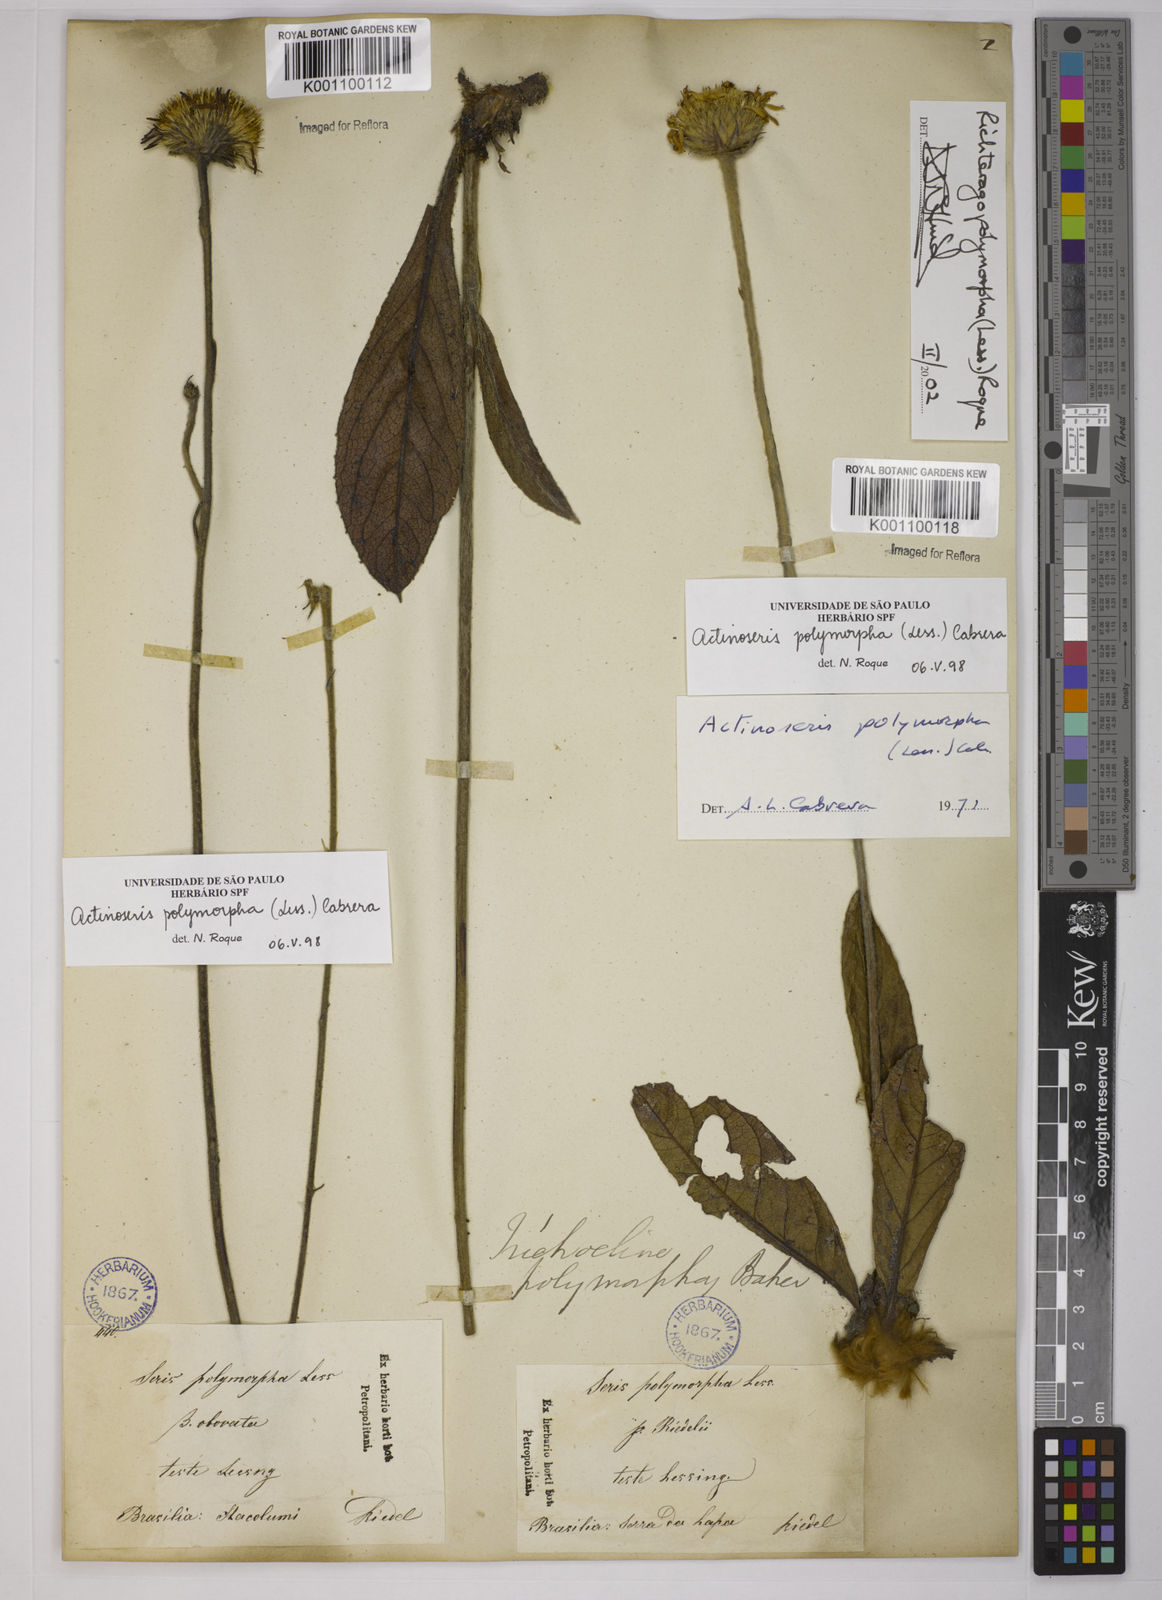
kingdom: Plantae
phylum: Tracheophyta
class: Magnoliopsida
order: Asterales
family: Asteraceae
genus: Richterago
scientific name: Richterago polymorpha
